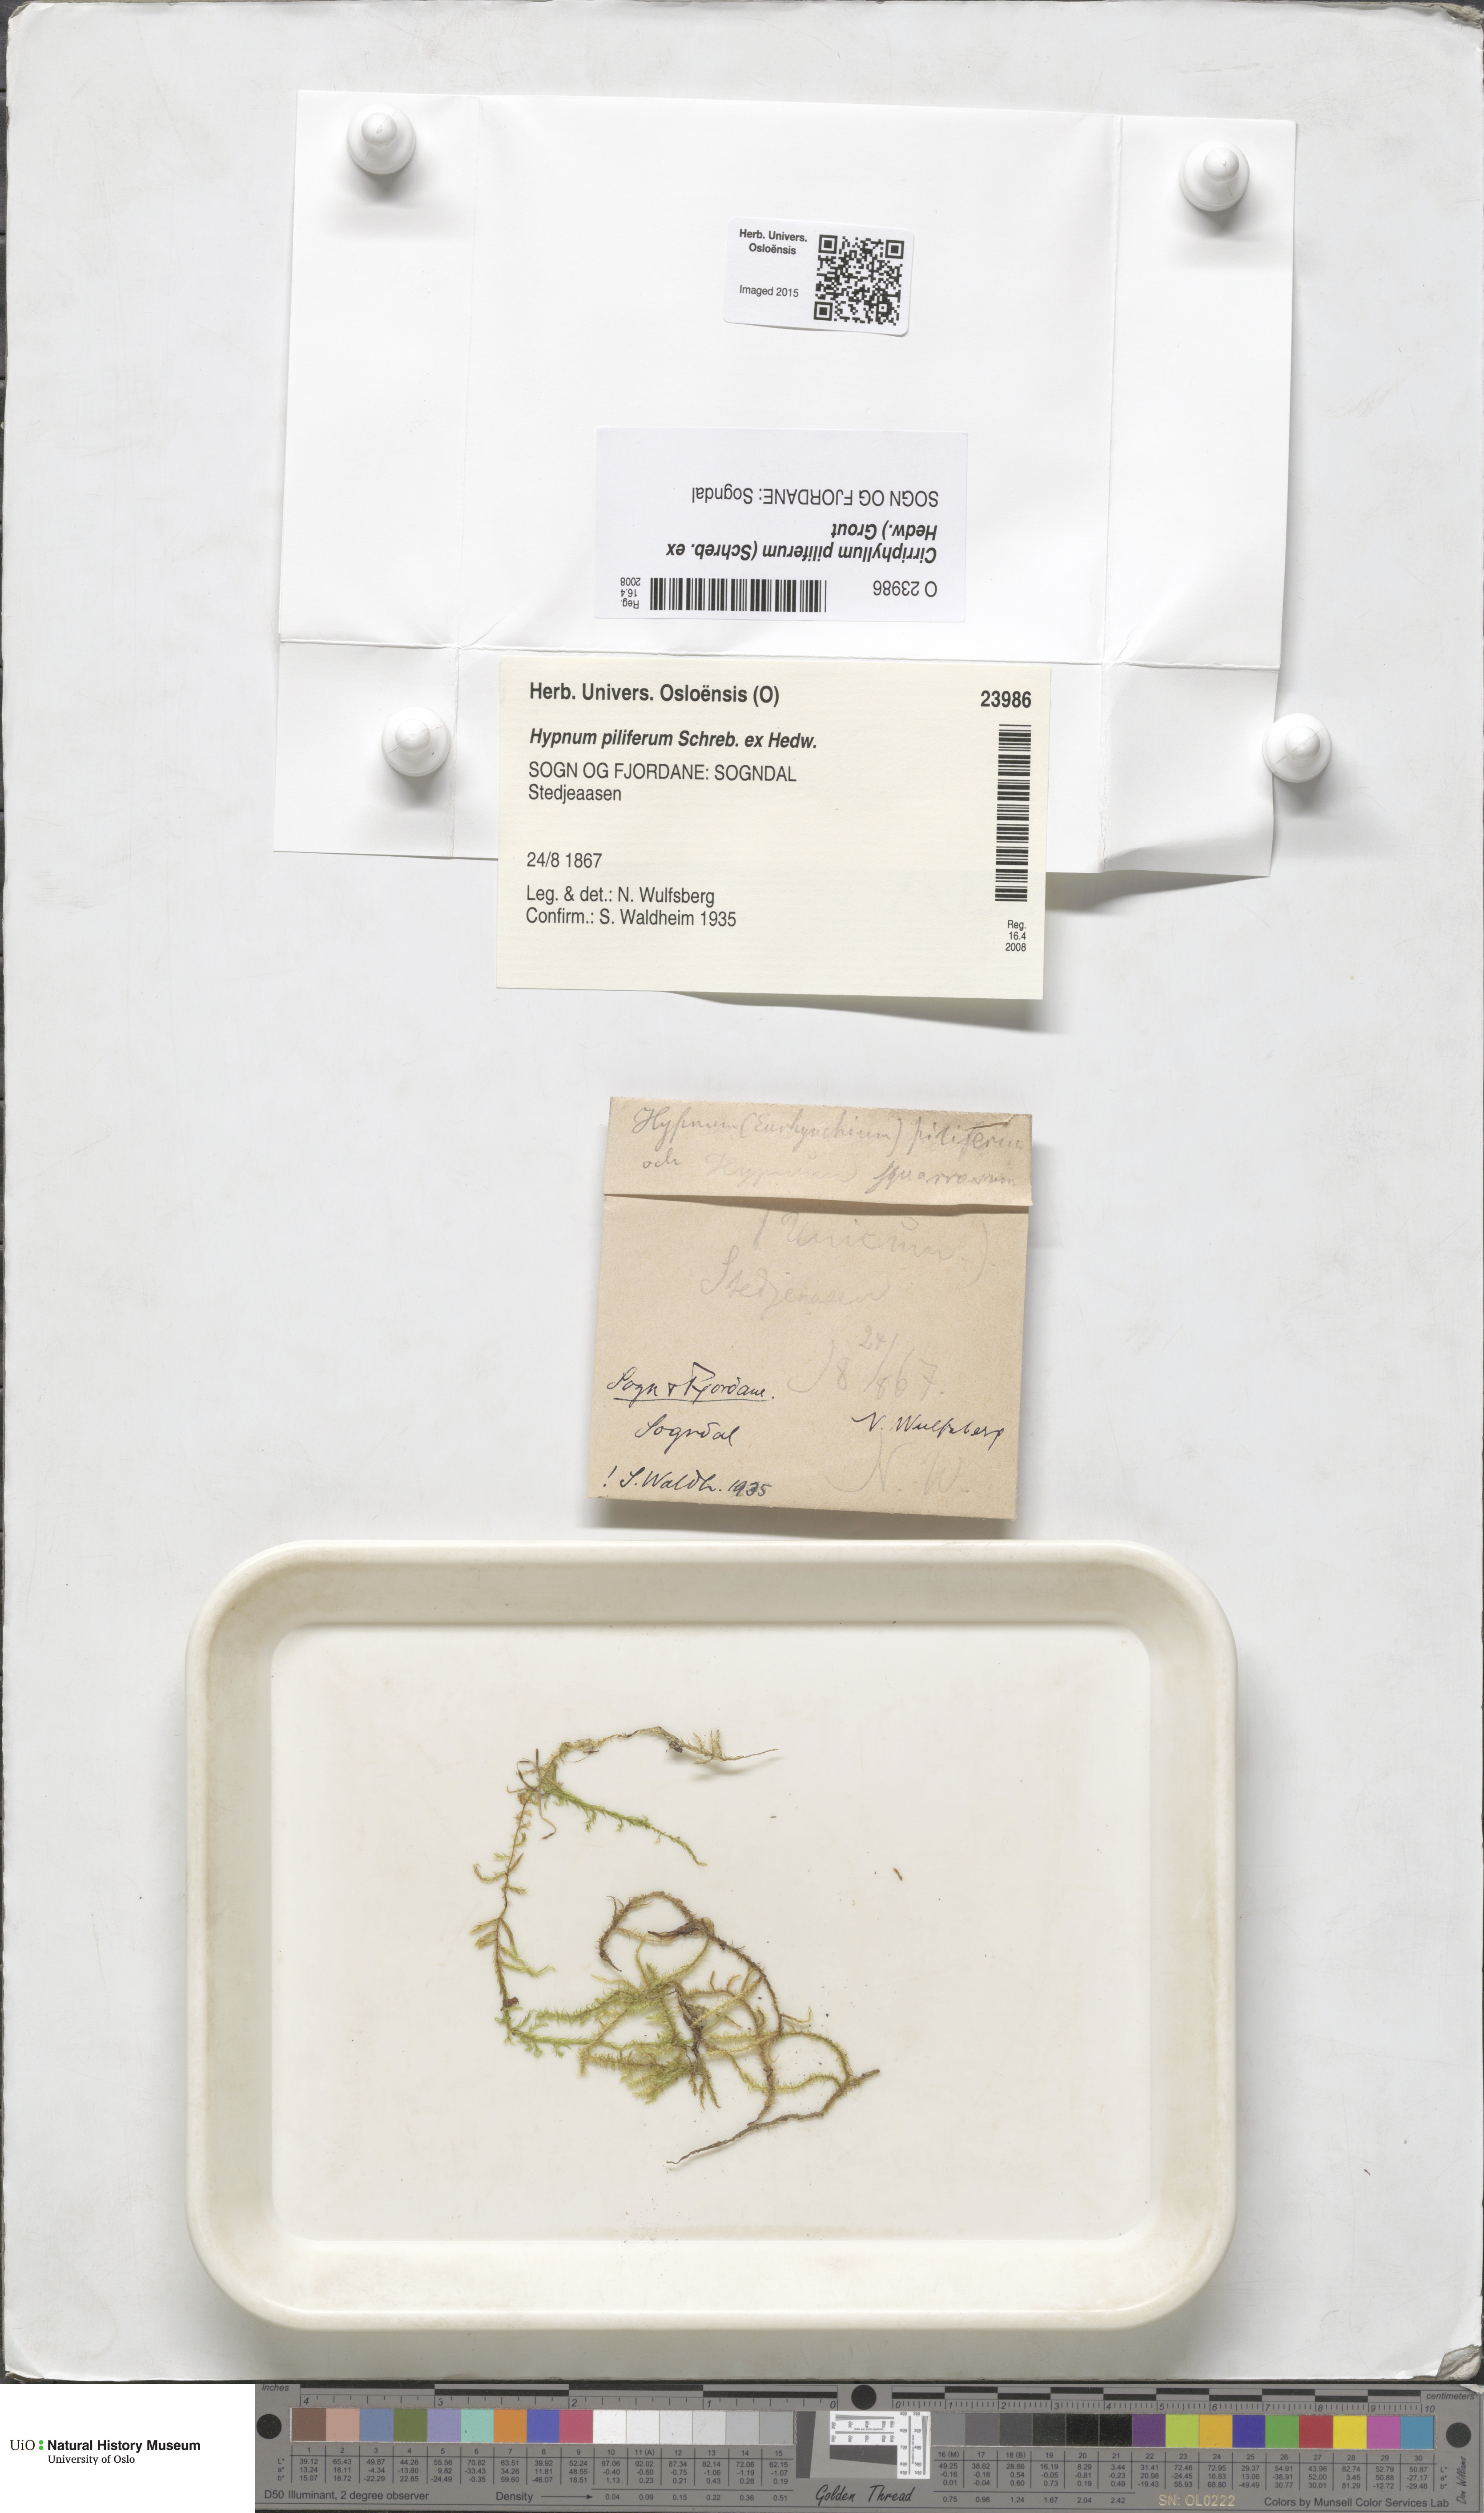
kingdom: Plantae
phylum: Bryophyta
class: Bryopsida
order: Hypnales
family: Brachytheciaceae
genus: Cirriphyllum
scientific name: Cirriphyllum piliferum
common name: Hair-pointed moss
